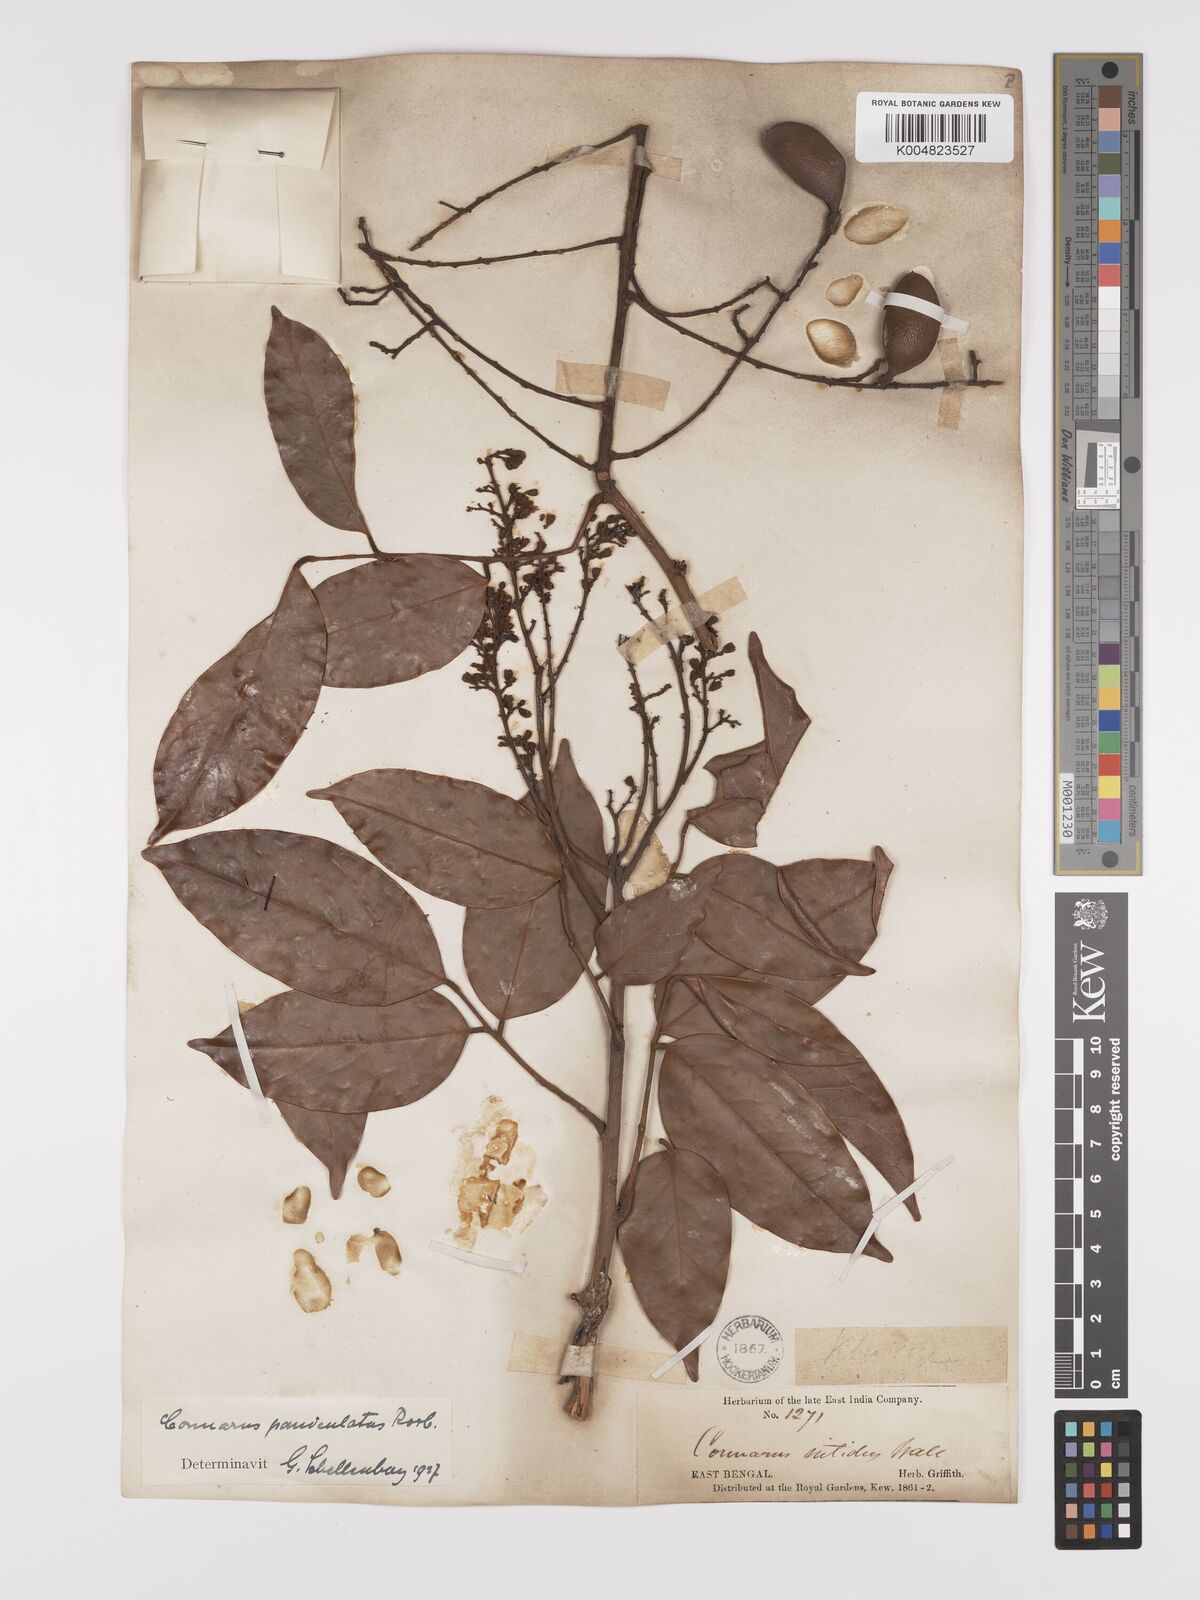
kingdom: Plantae
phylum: Tracheophyta
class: Magnoliopsida
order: Oxalidales
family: Connaraceae
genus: Connarus
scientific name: Connarus paniculatus
